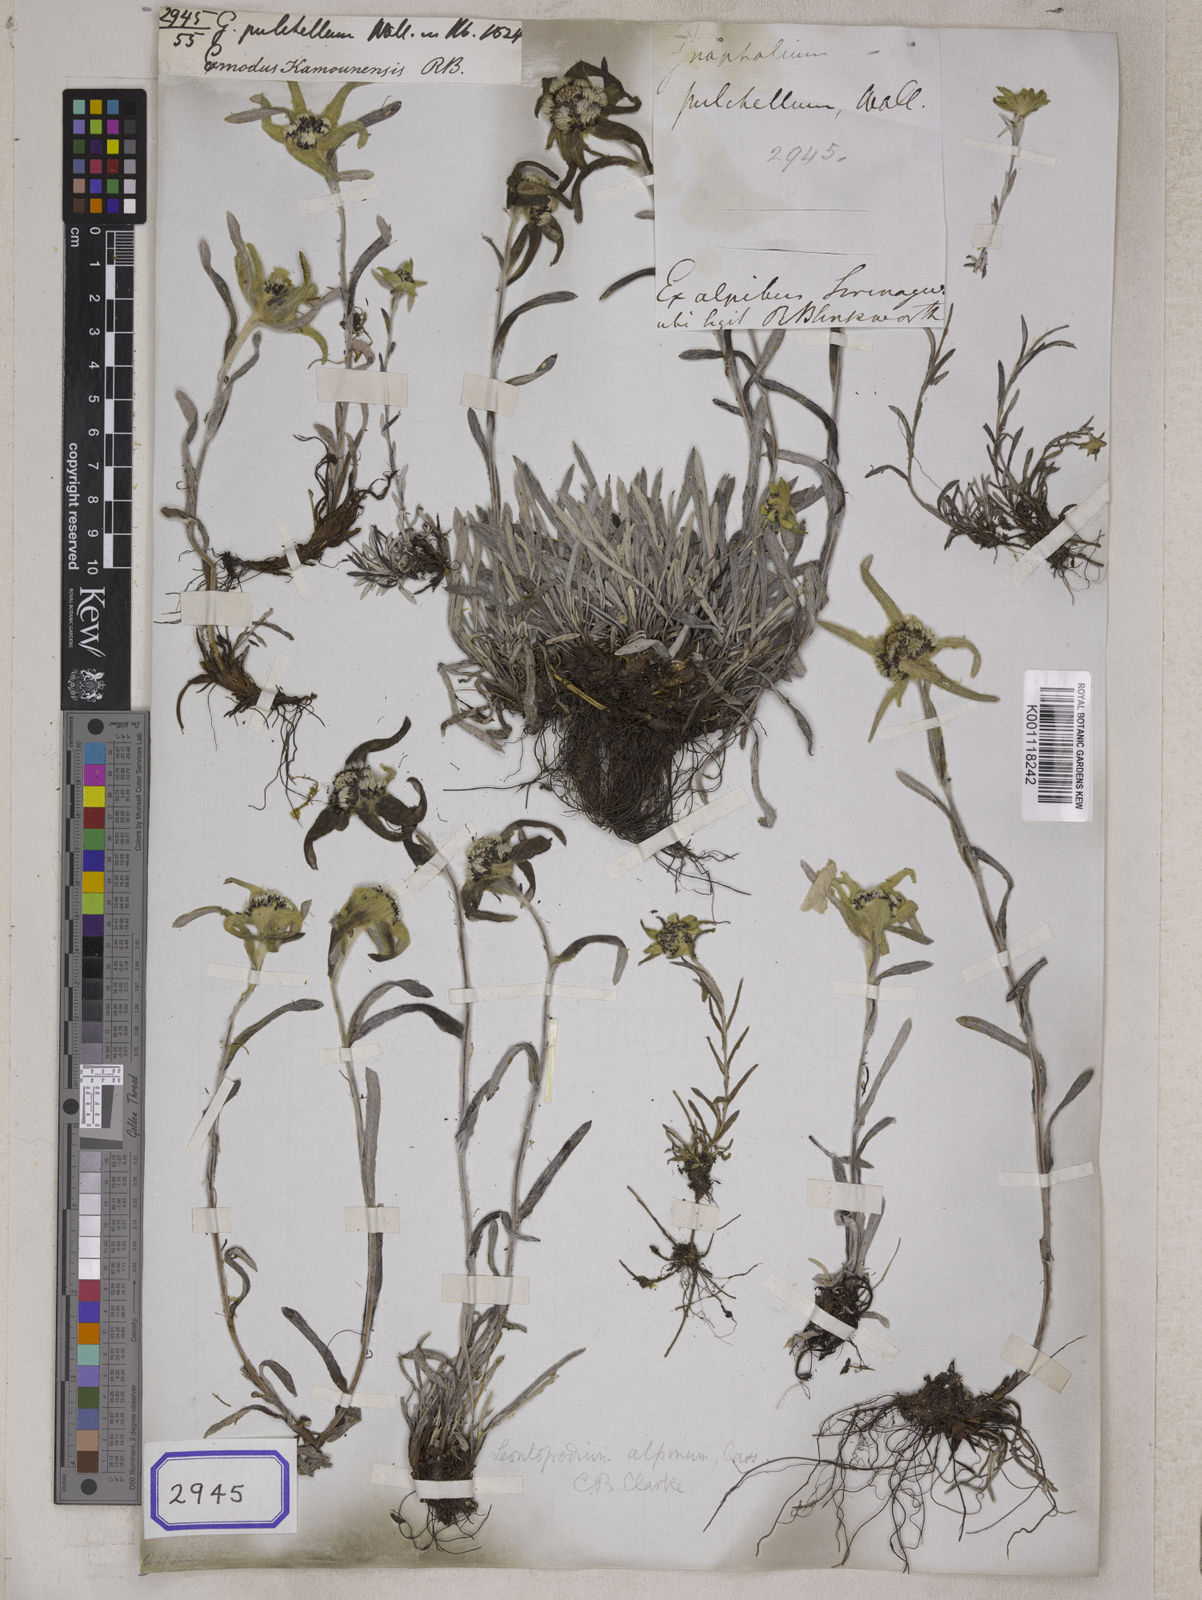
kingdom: Plantae
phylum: Tracheophyta
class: Magnoliopsida
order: Asterales
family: Asteraceae
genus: Leontopodium
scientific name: Leontopodium nivale
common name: Edelweiss
